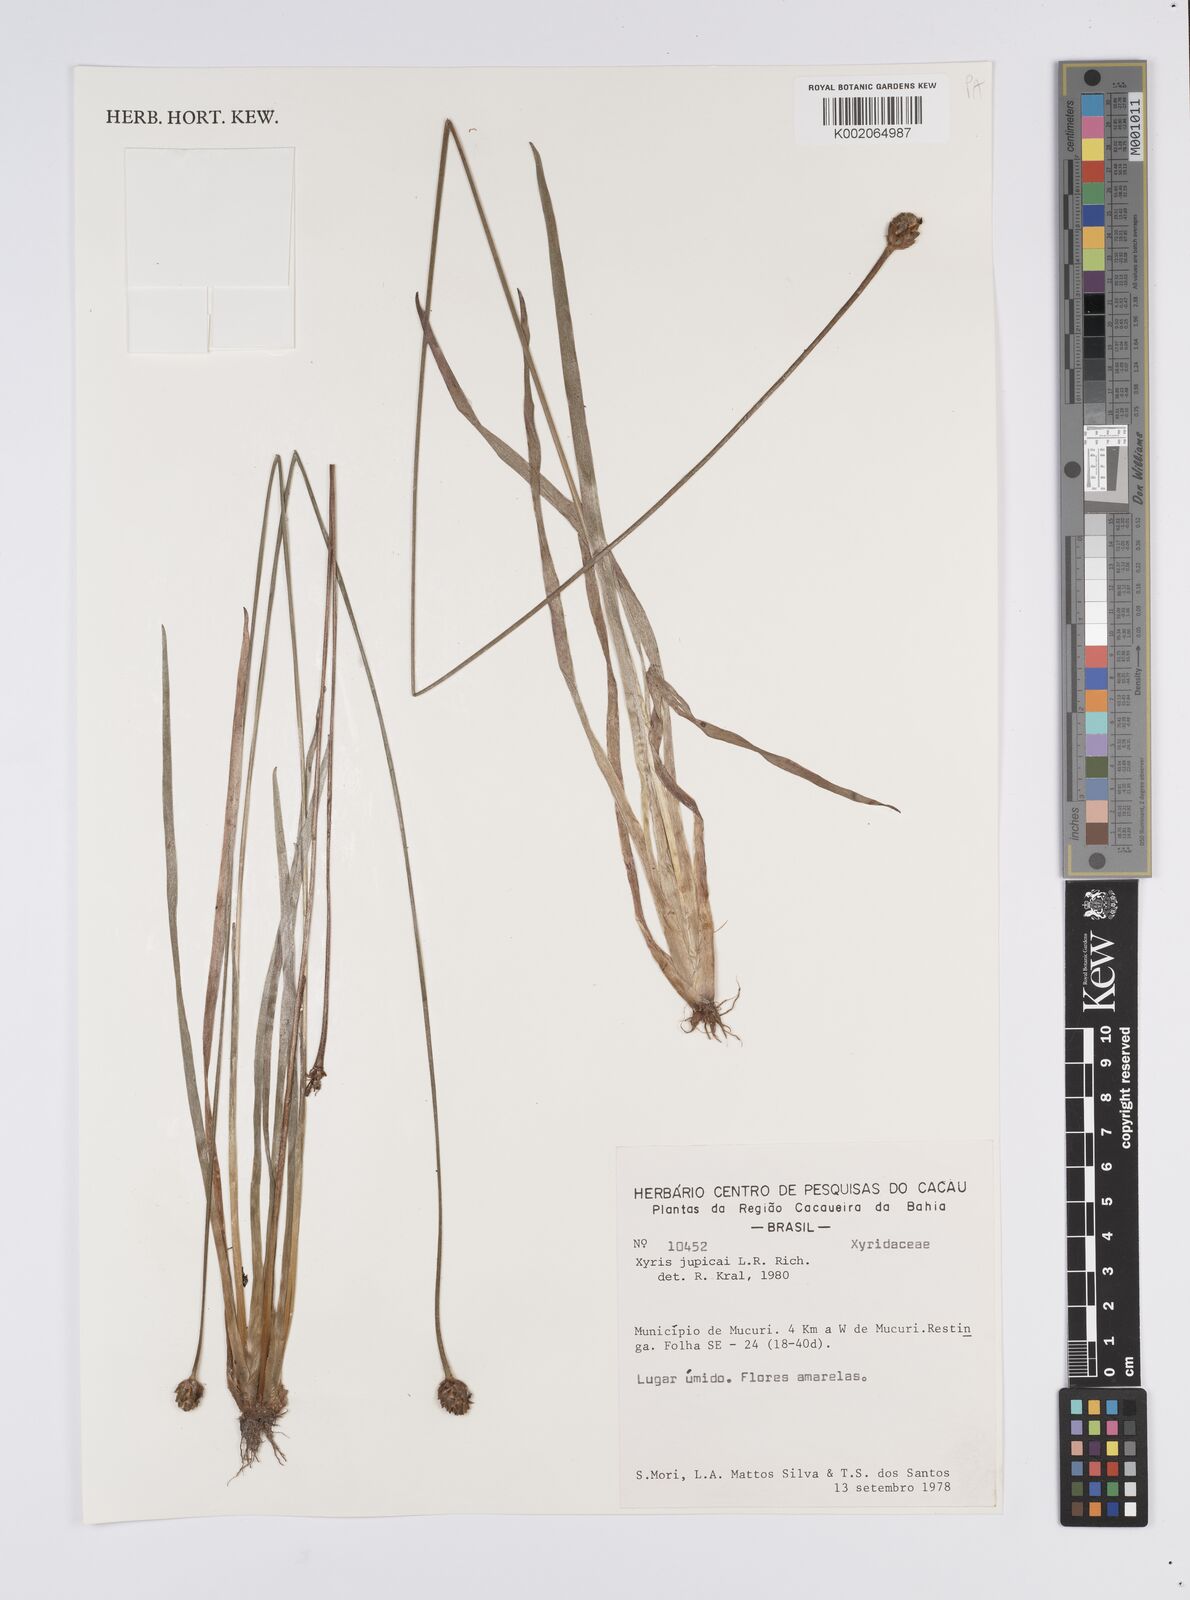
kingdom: Plantae
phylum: Tracheophyta
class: Liliopsida
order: Poales
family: Xyridaceae
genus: Xyris
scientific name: Xyris jupicai
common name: Richard's yelloweyed grass
